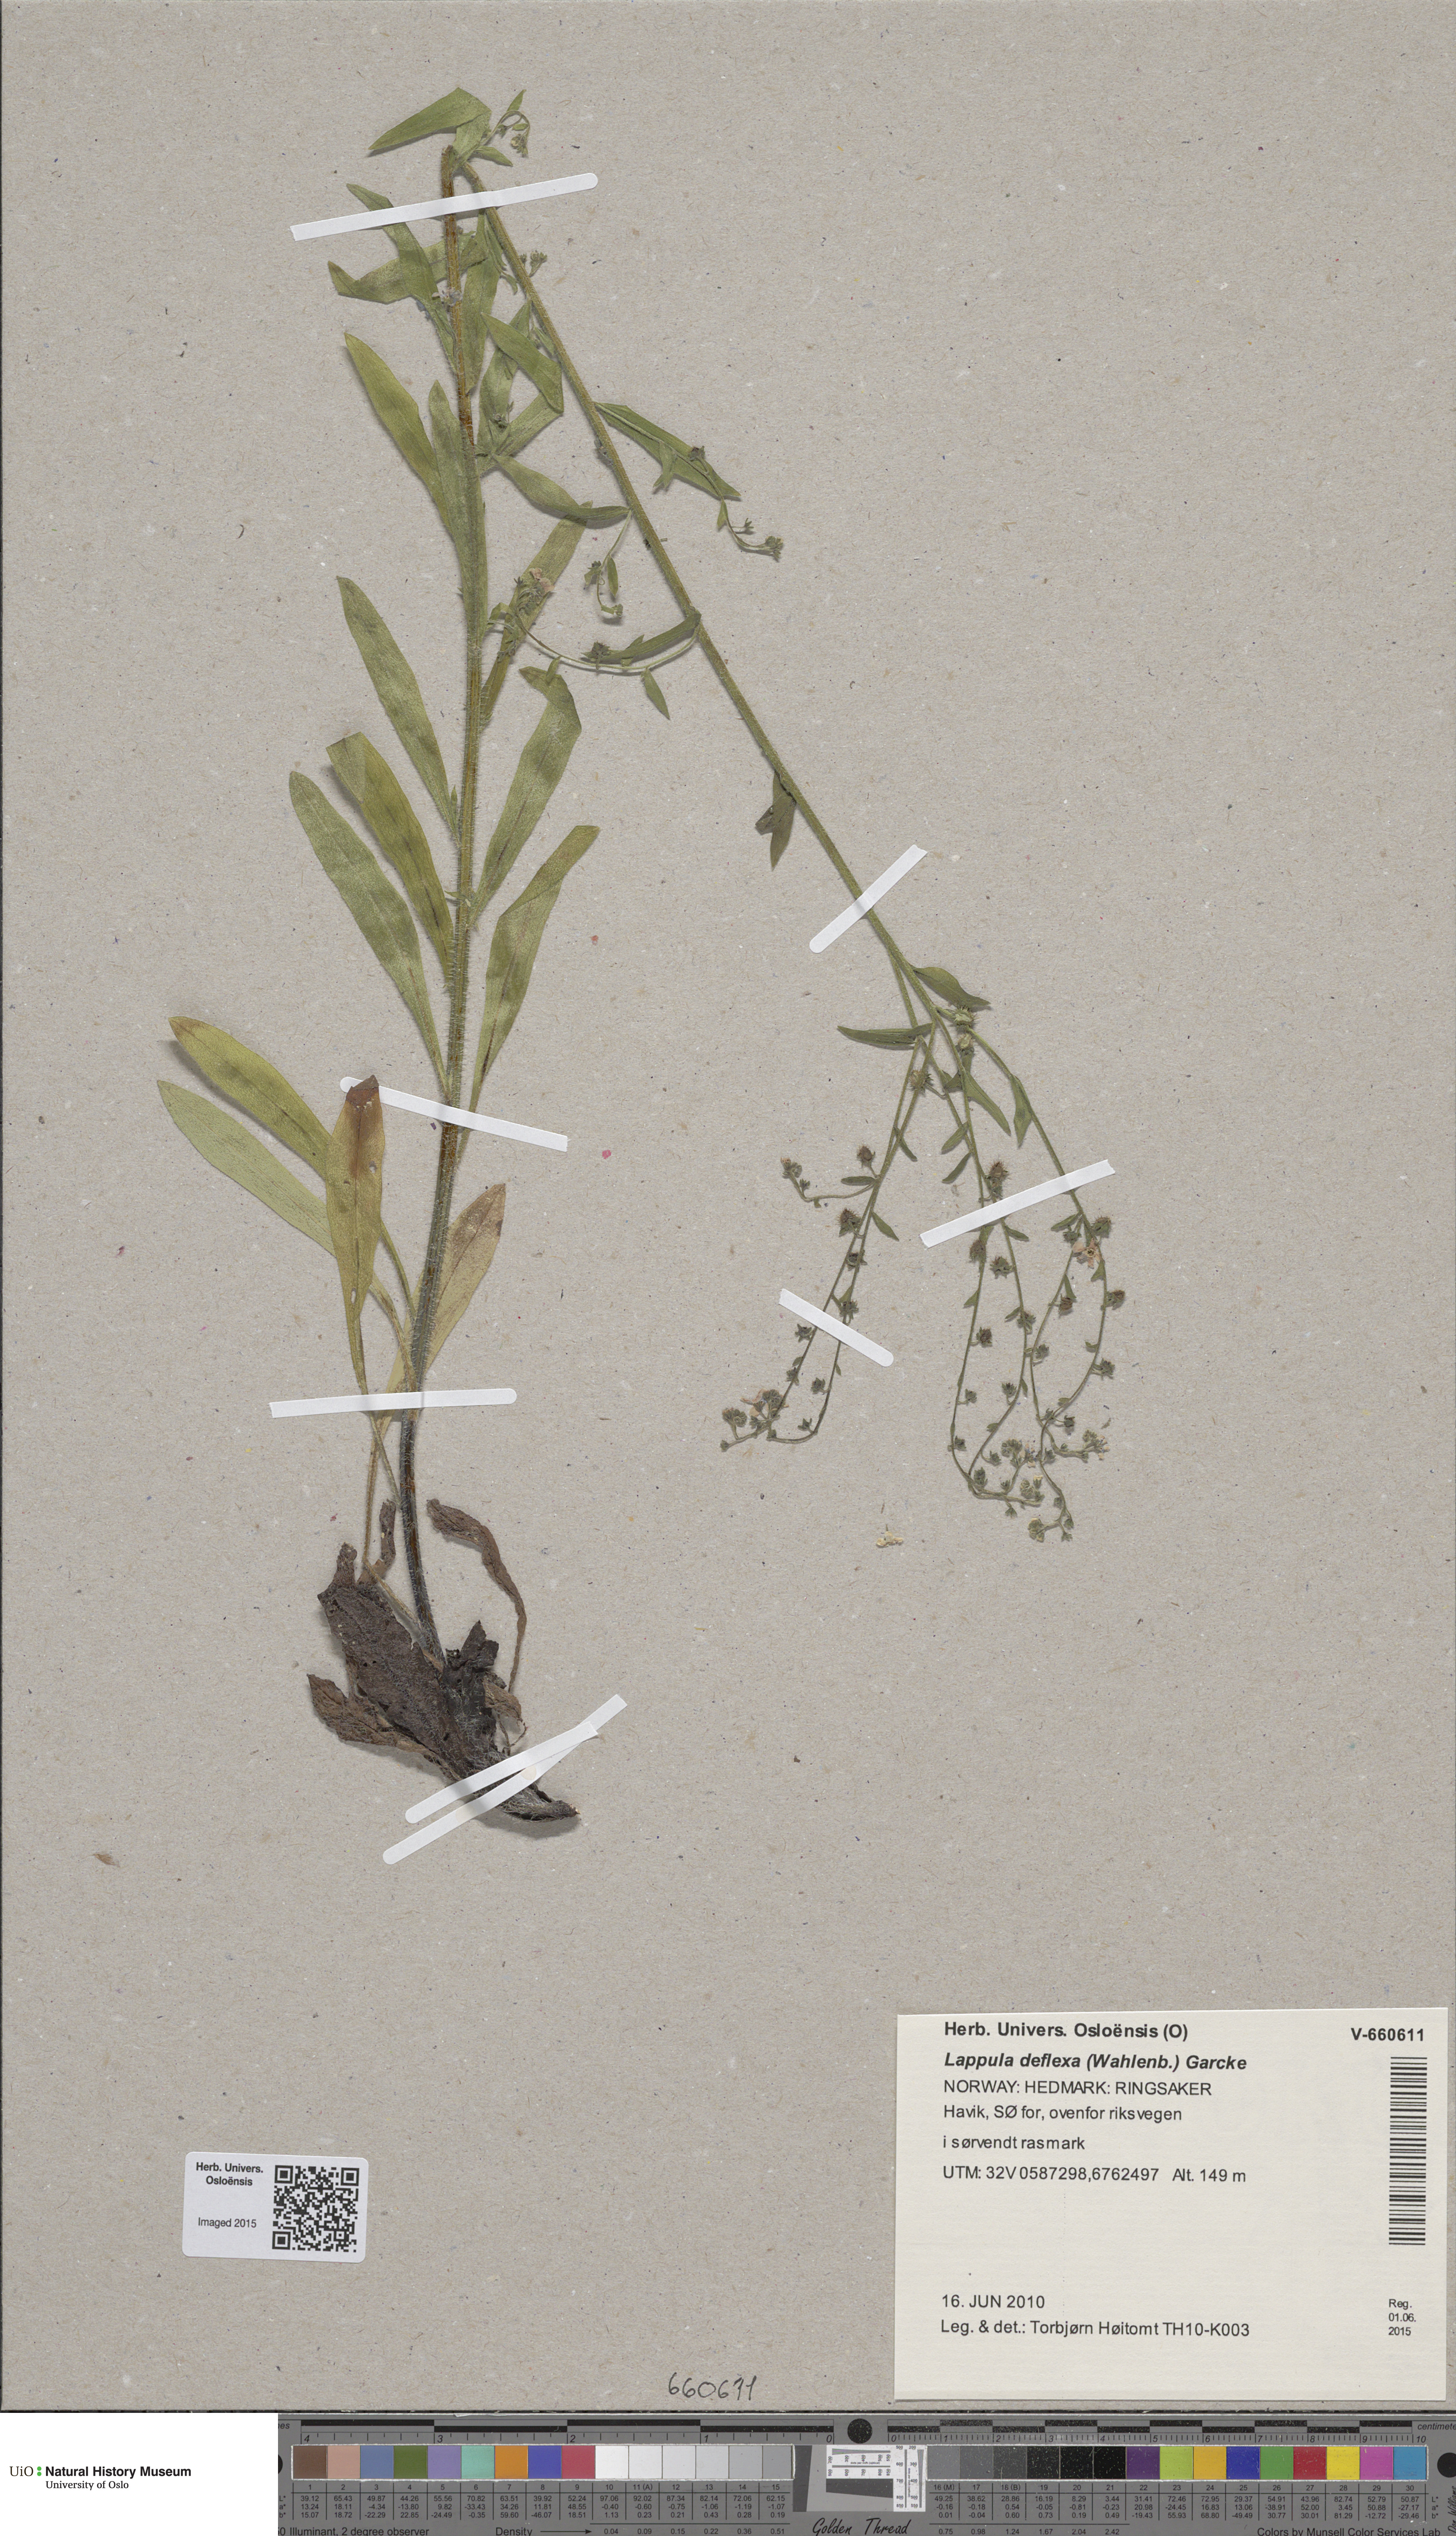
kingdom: Plantae
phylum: Tracheophyta
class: Magnoliopsida
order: Boraginales
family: Boraginaceae
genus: Hackelia
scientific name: Hackelia deflexa
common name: Nodding stickseed
